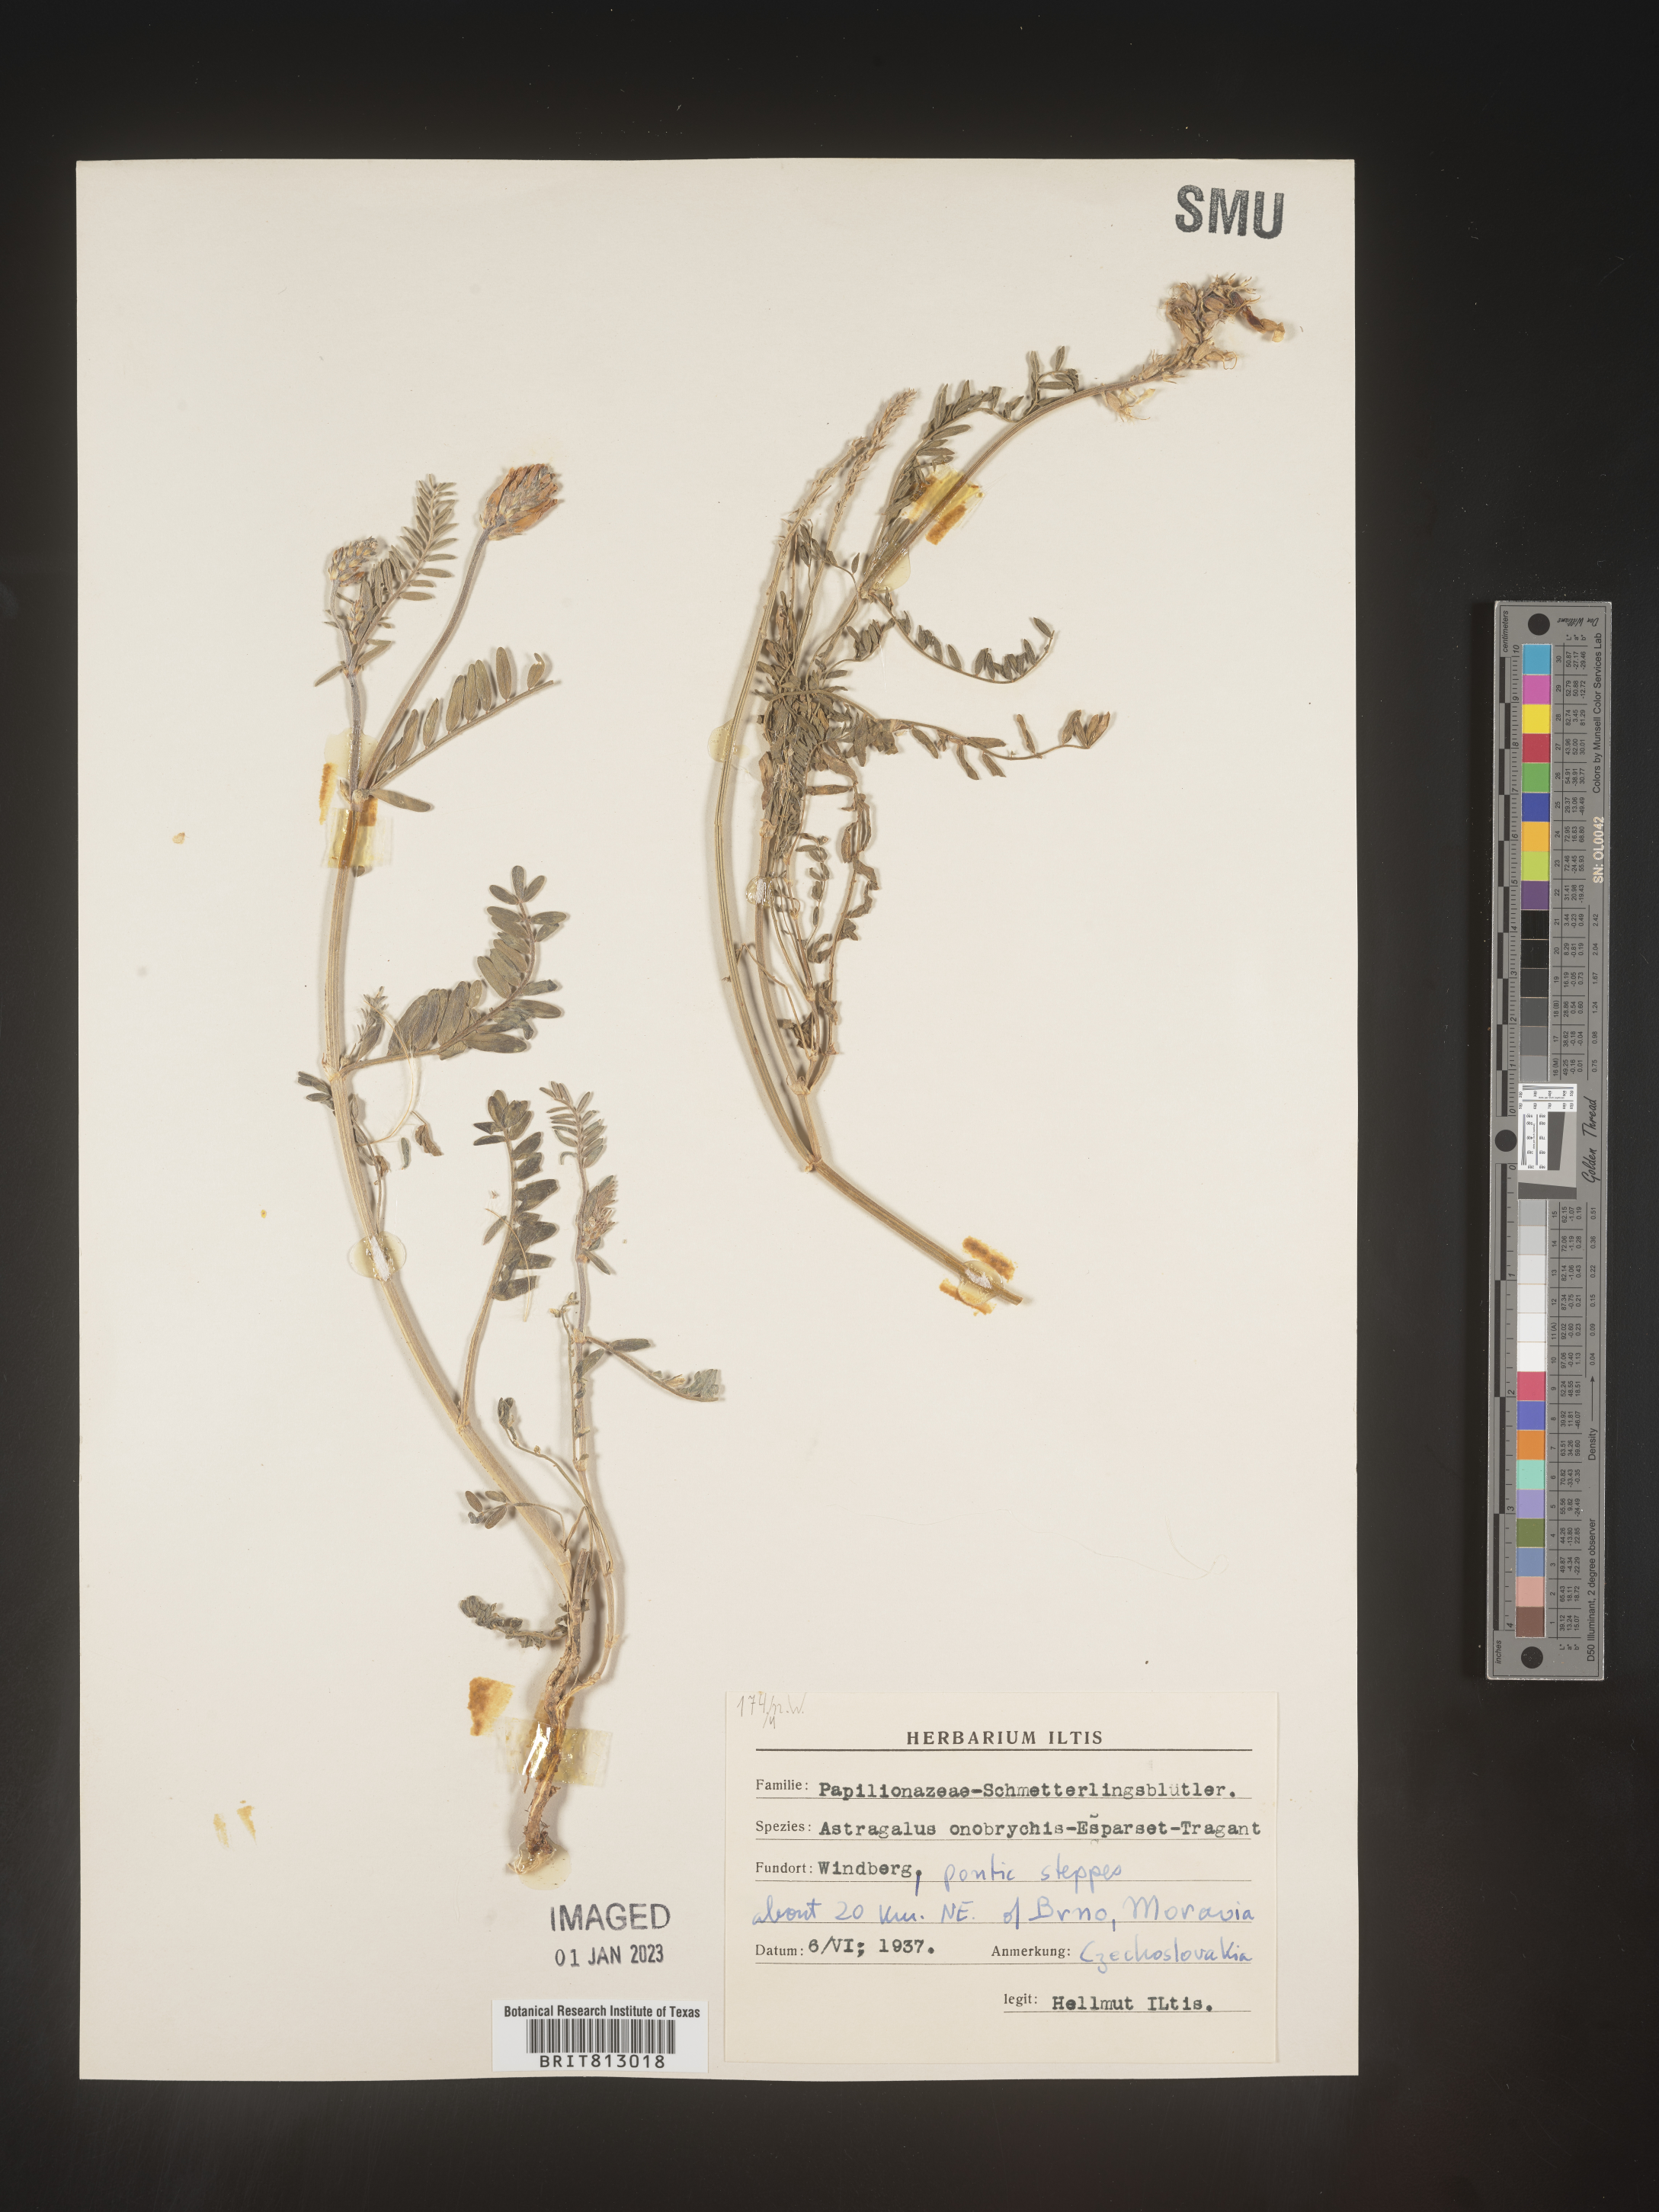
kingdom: Plantae
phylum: Tracheophyta
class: Magnoliopsida
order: Fabales
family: Fabaceae
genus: Astragalus
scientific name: Astragalus
